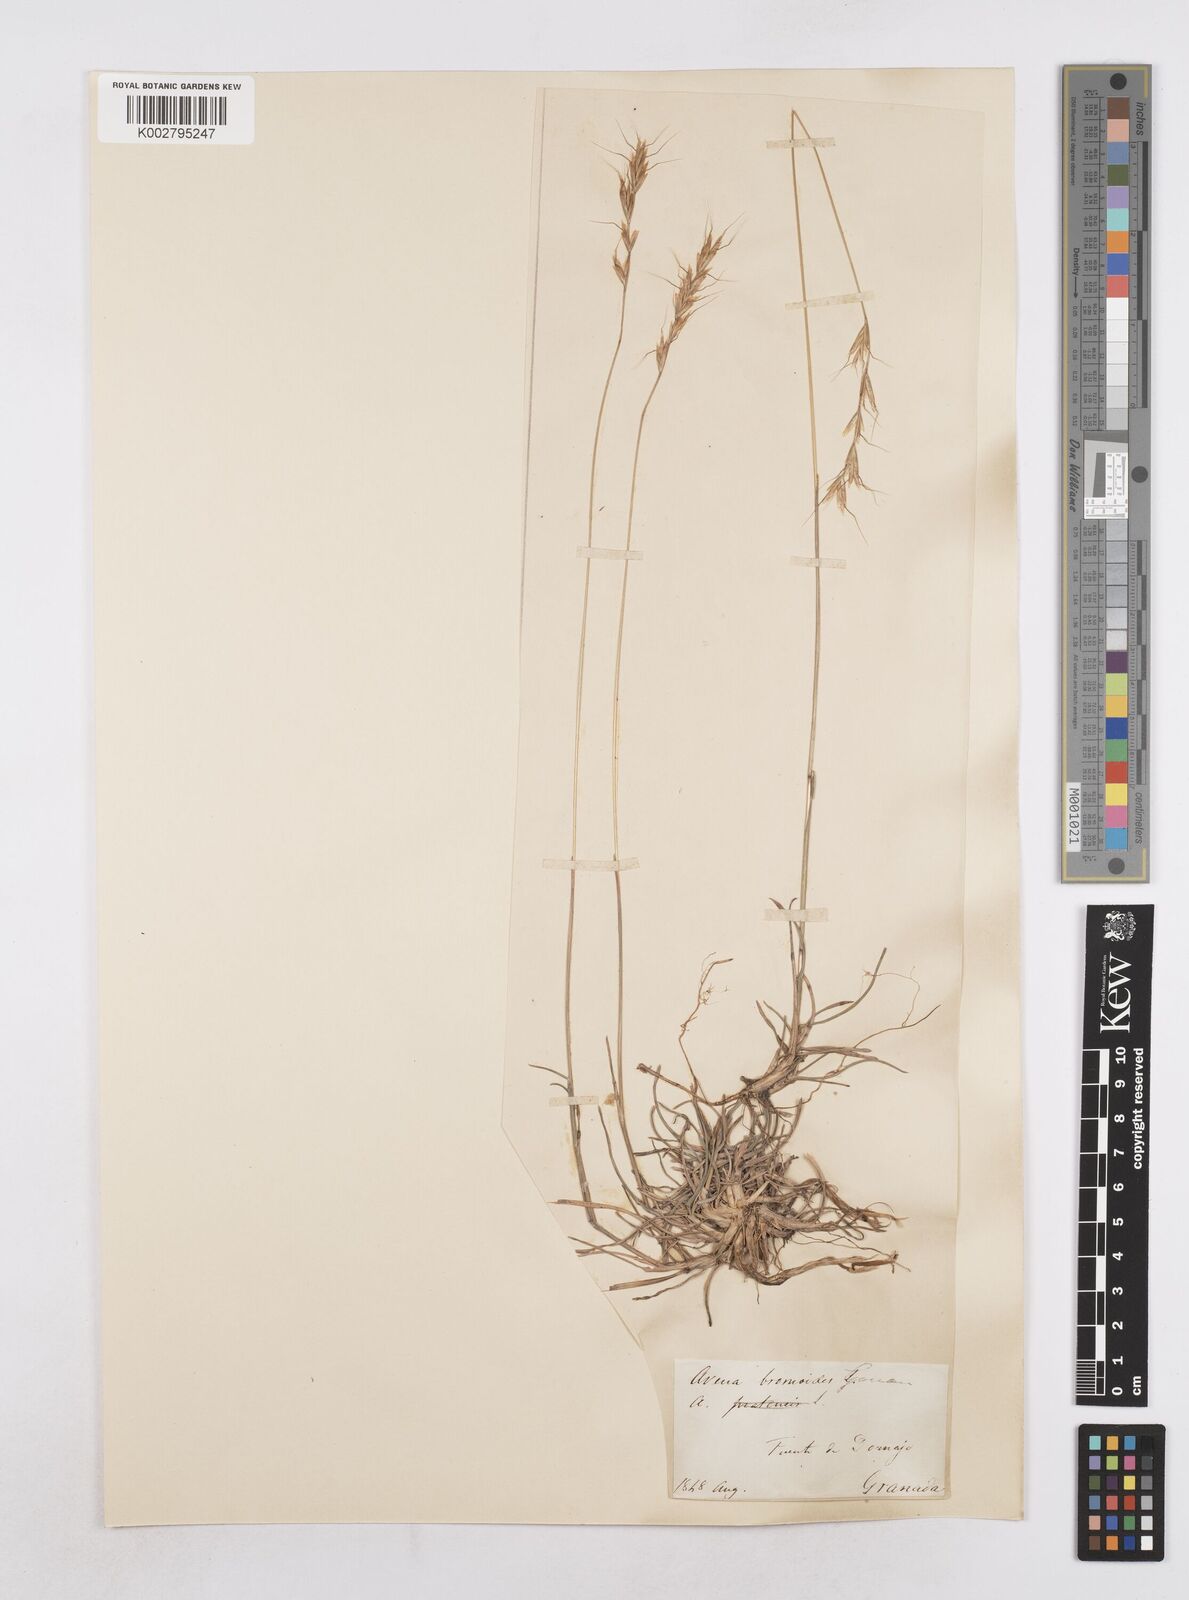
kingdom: Plantae
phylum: Tracheophyta
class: Liliopsida
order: Poales
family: Poaceae
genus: Helictochloa
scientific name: Helictochloa bromoides
